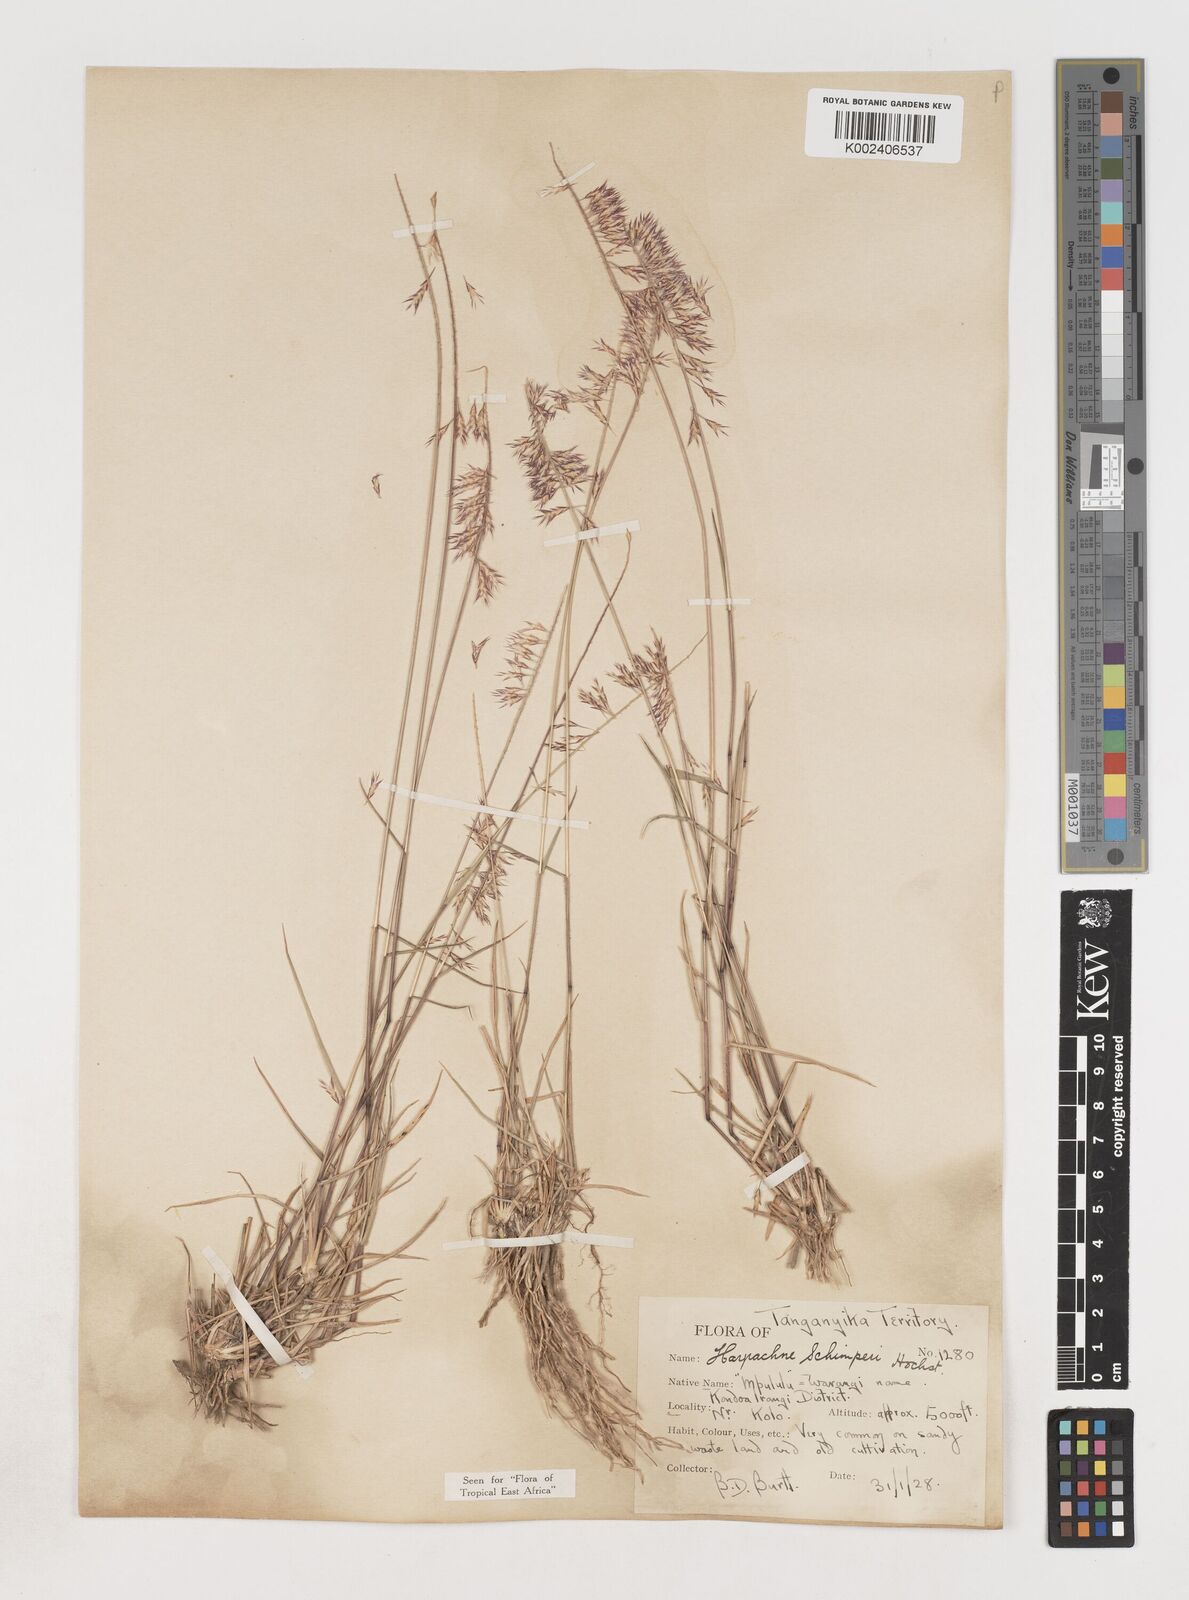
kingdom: Plantae
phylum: Tracheophyta
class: Liliopsida
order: Poales
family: Poaceae
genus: Harpachne
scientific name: Harpachne schimperi
